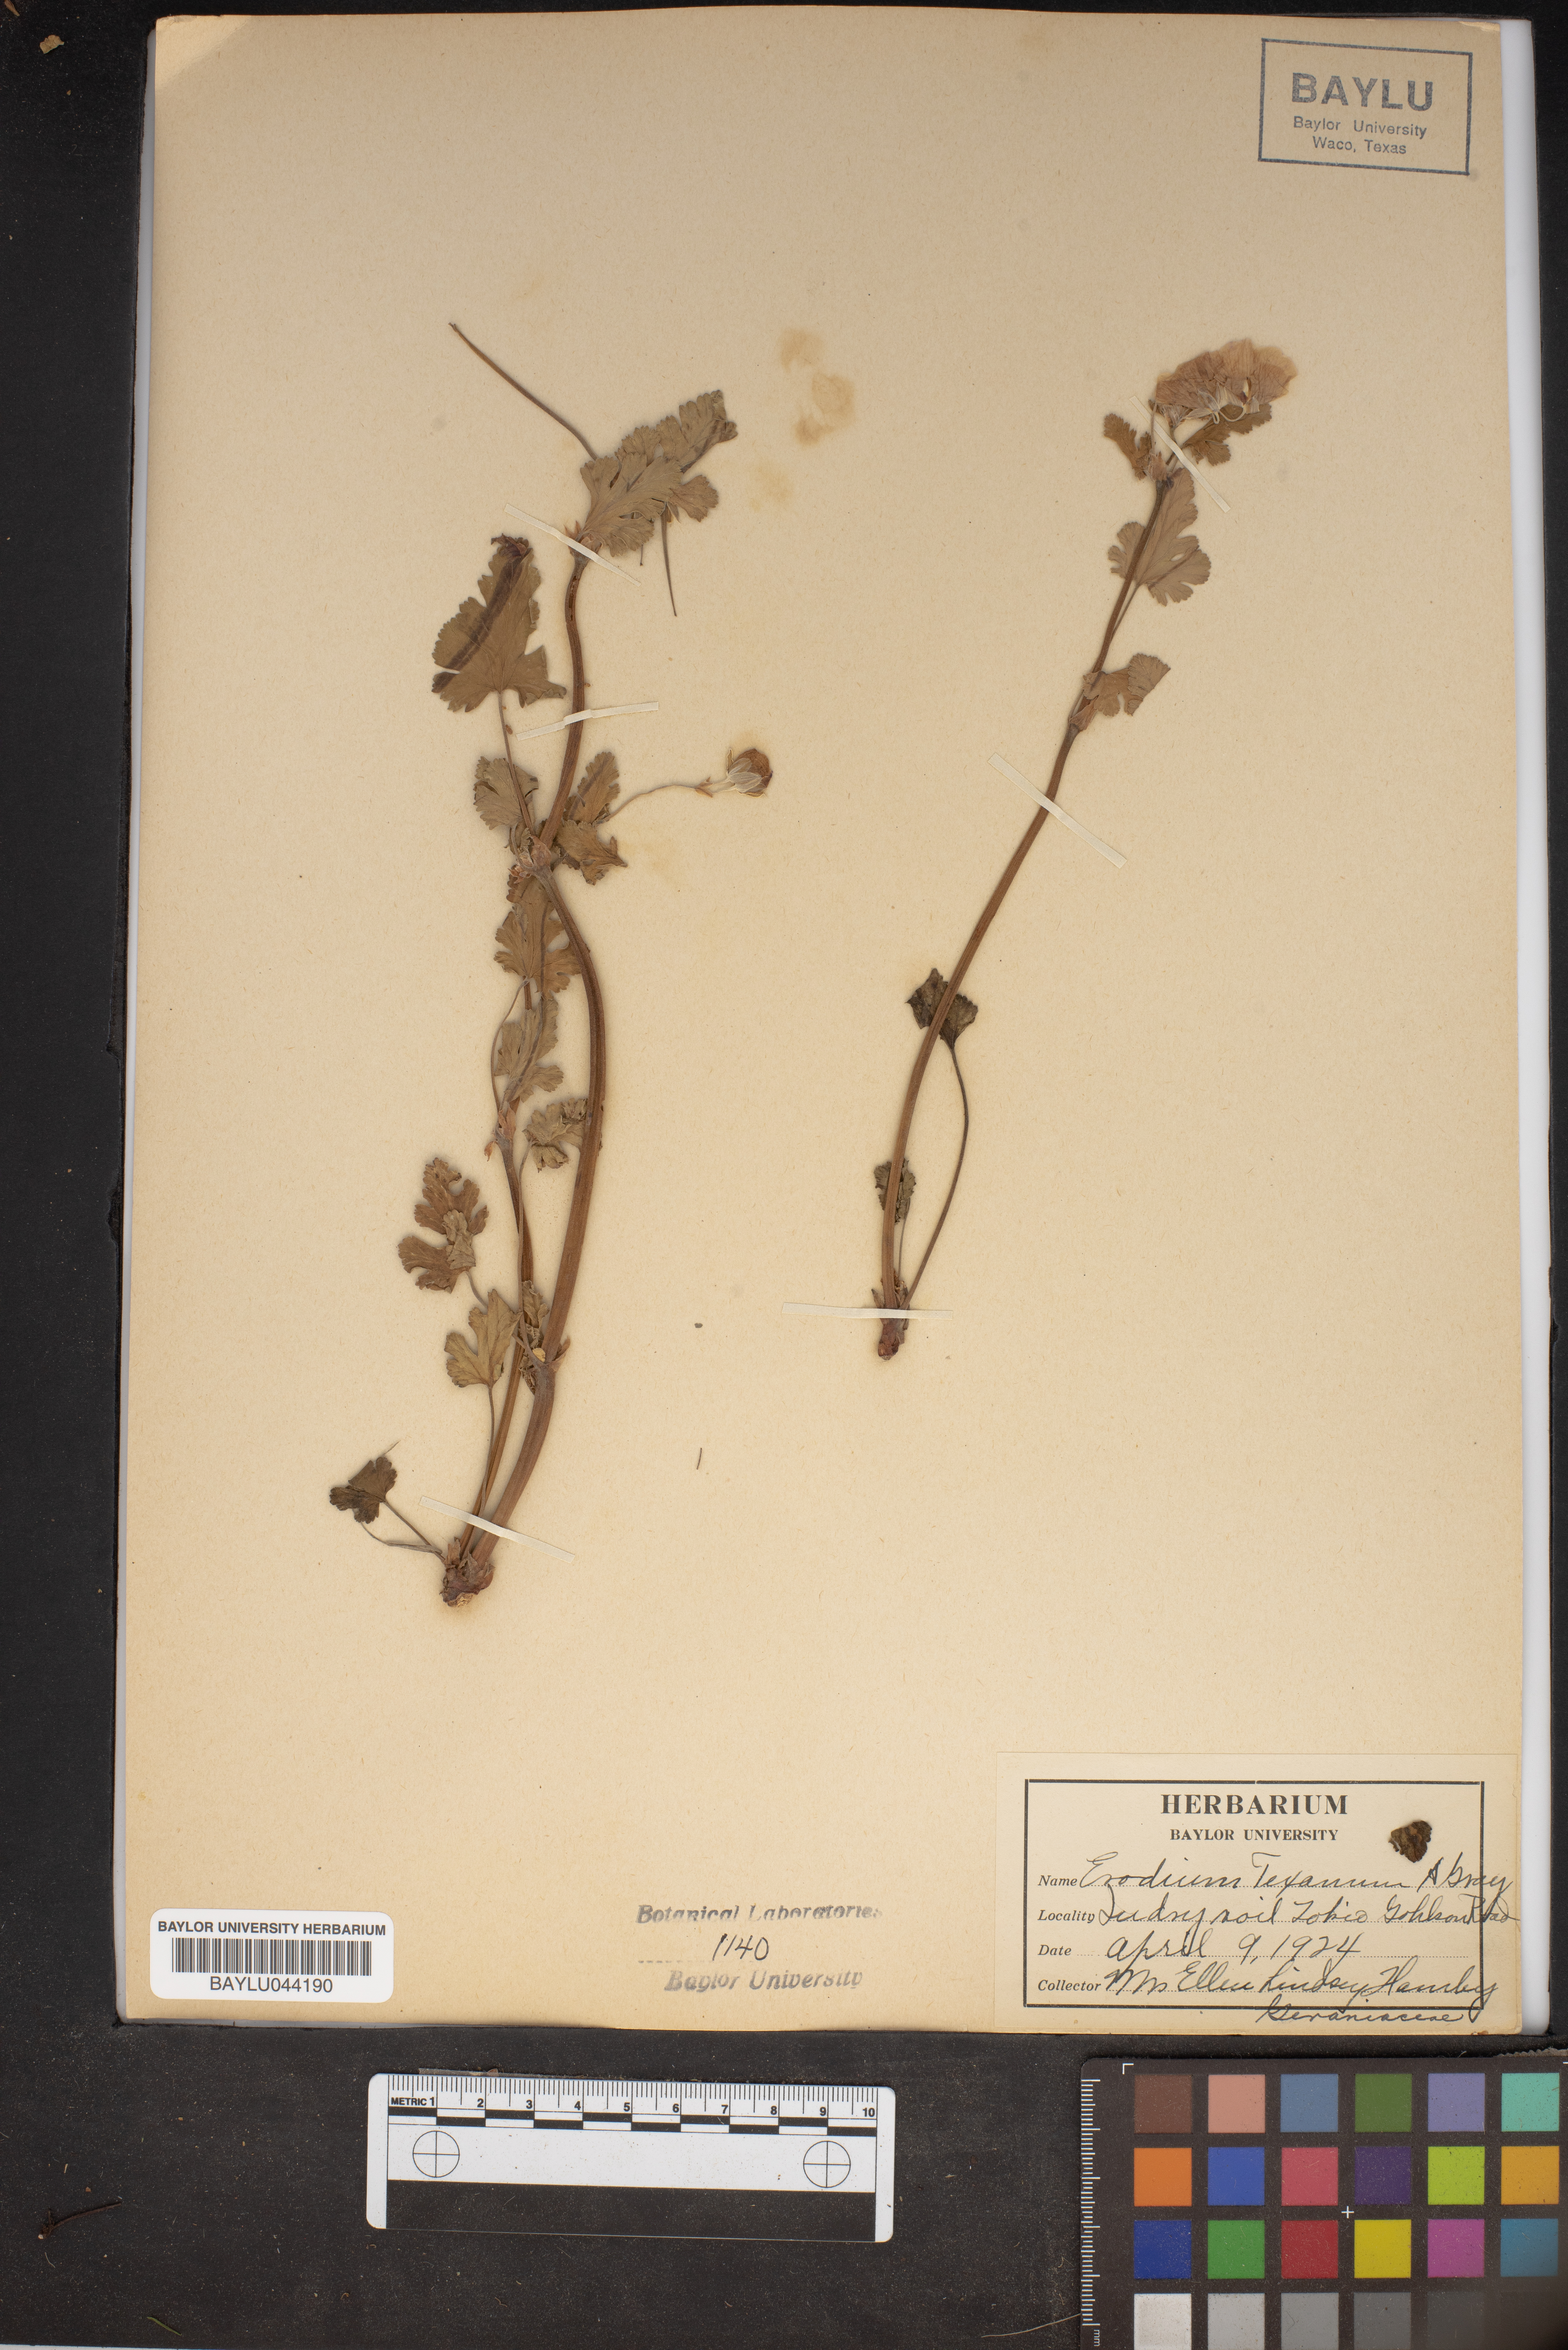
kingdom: Plantae
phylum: Tracheophyta
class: Magnoliopsida
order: Geraniales
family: Geraniaceae
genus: Erodium
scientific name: Erodium texanum
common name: Texas stork's-bill
